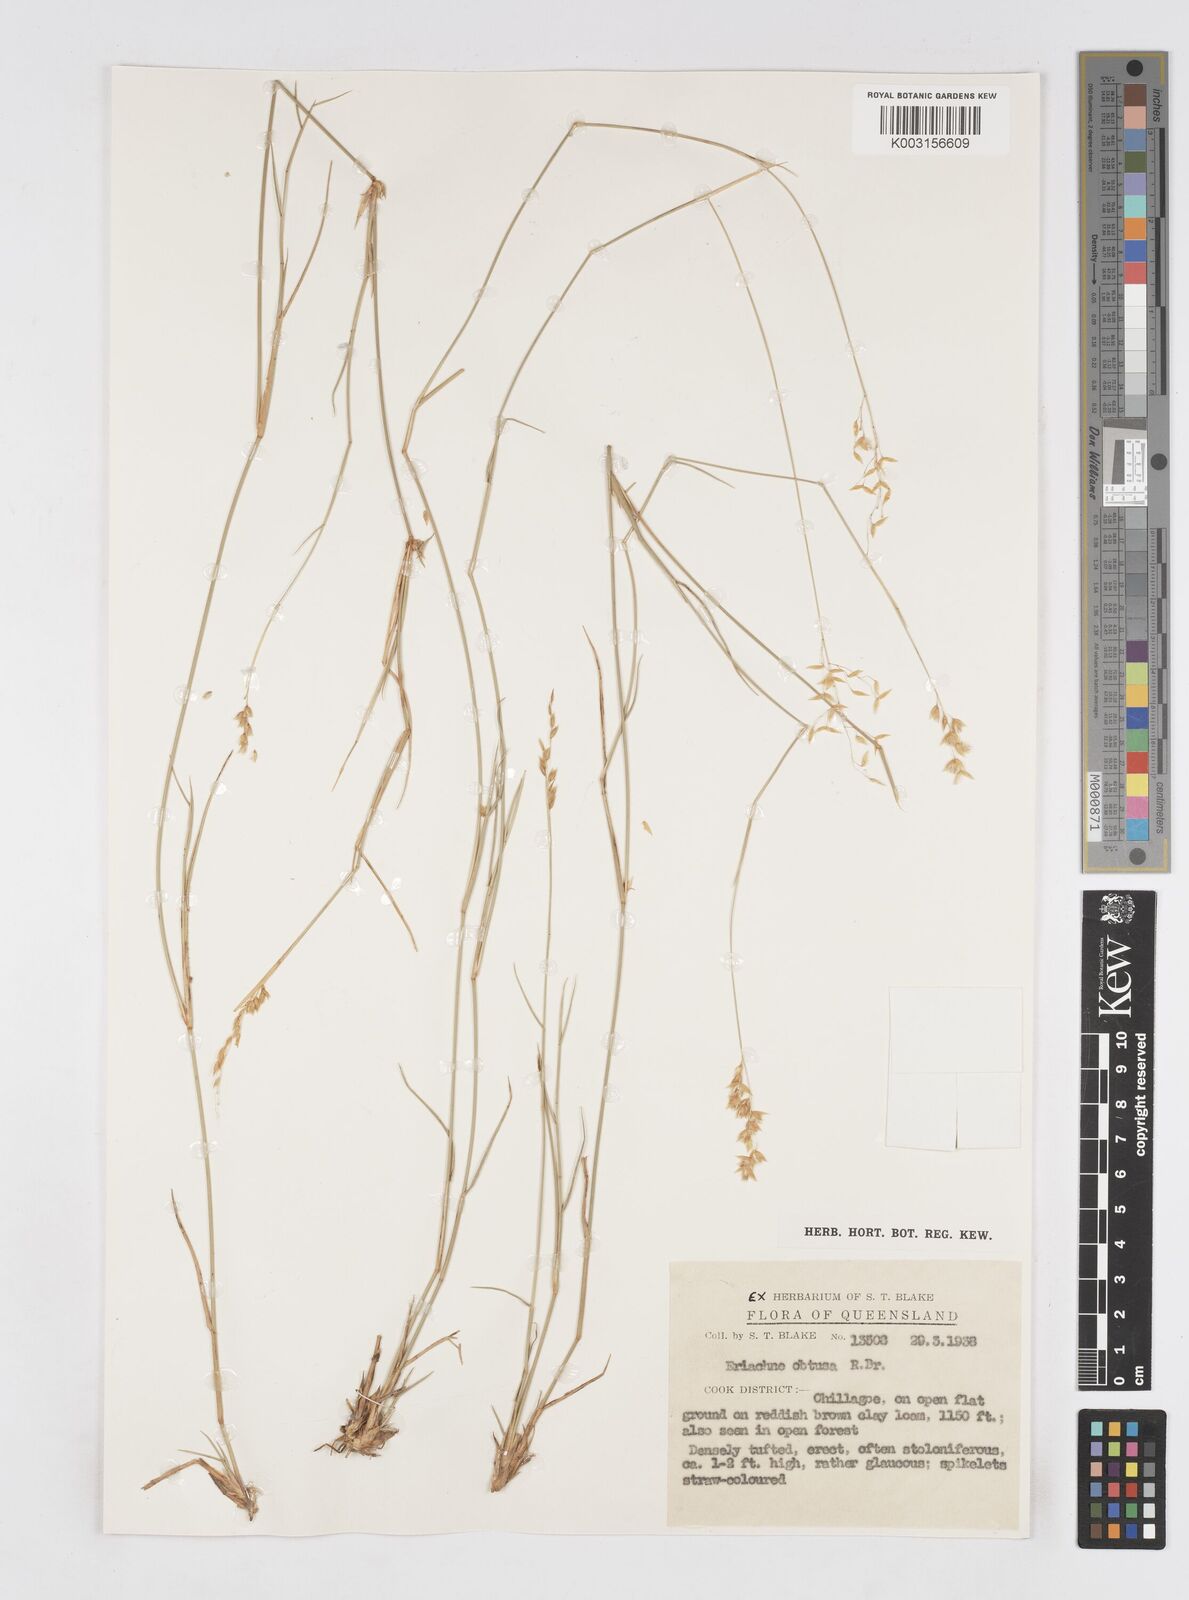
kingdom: Plantae
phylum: Tracheophyta
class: Liliopsida
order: Poales
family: Poaceae
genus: Eriachne
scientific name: Eriachne obtusa
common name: Northern wanderrie grass
